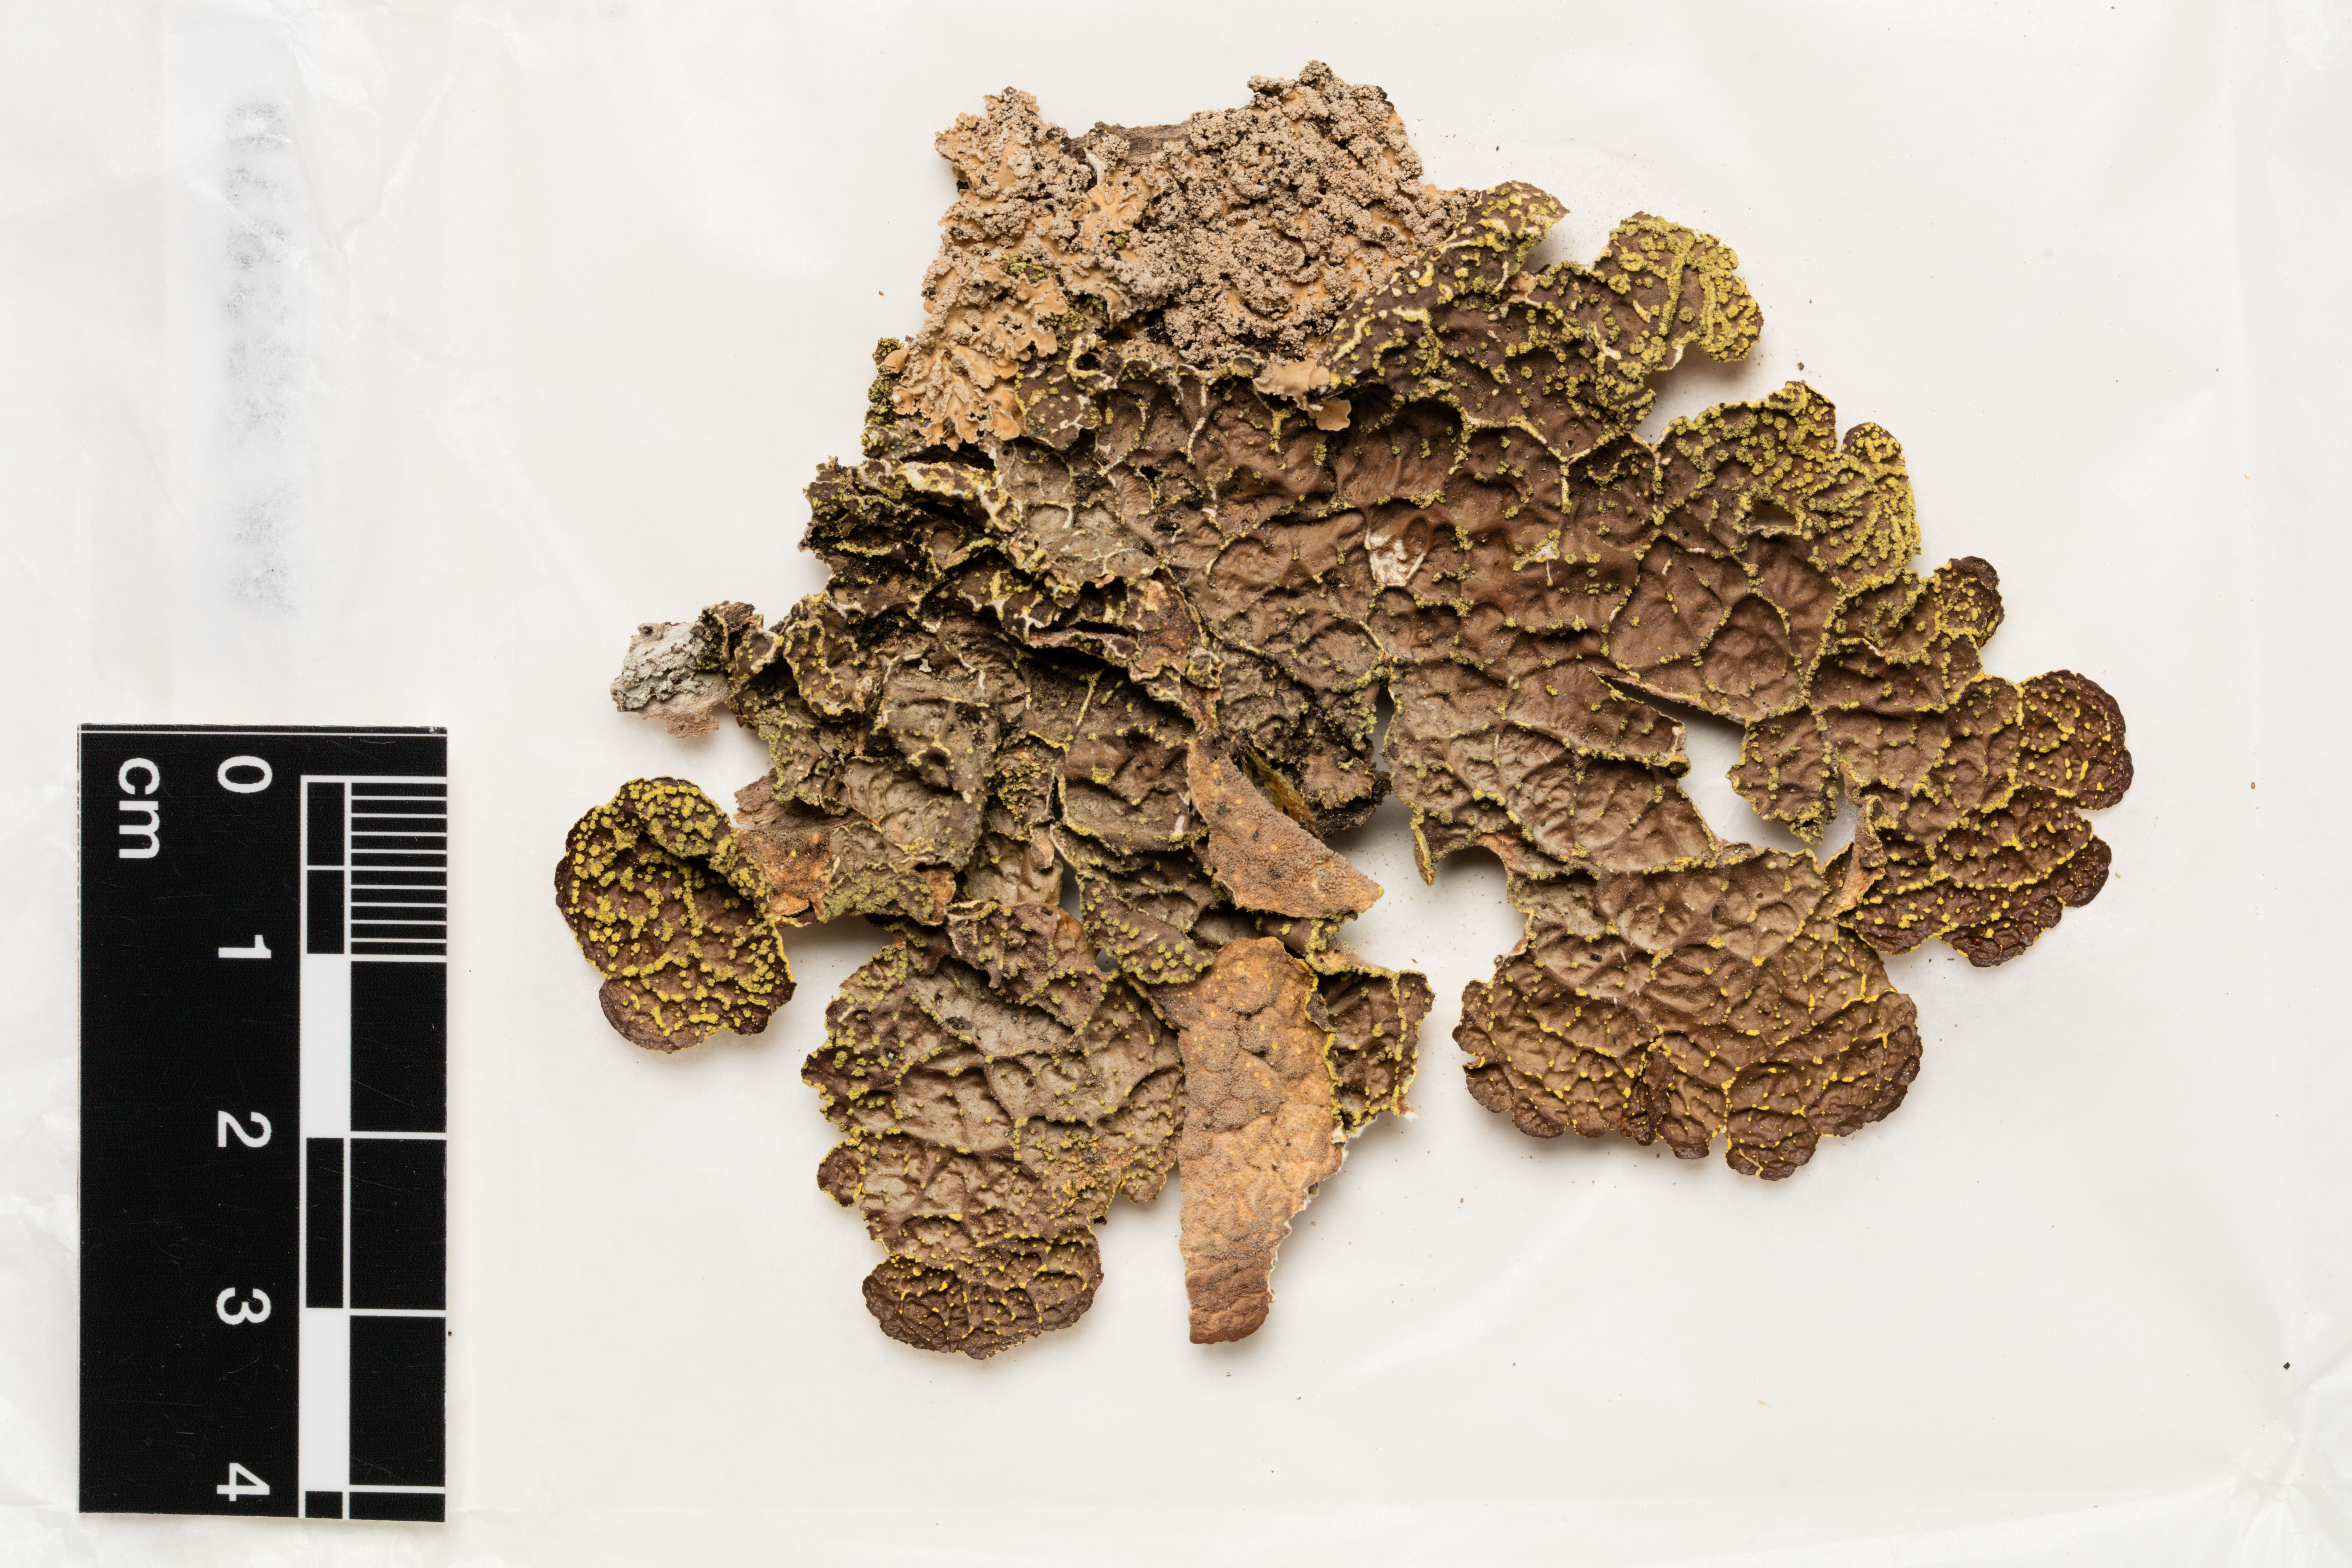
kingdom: Fungi
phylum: Ascomycota
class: Lecanoromycetes
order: Peltigerales
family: Lobariaceae
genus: Pseudocyphellaria
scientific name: Pseudocyphellaria crocata
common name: Golden specklebelly
